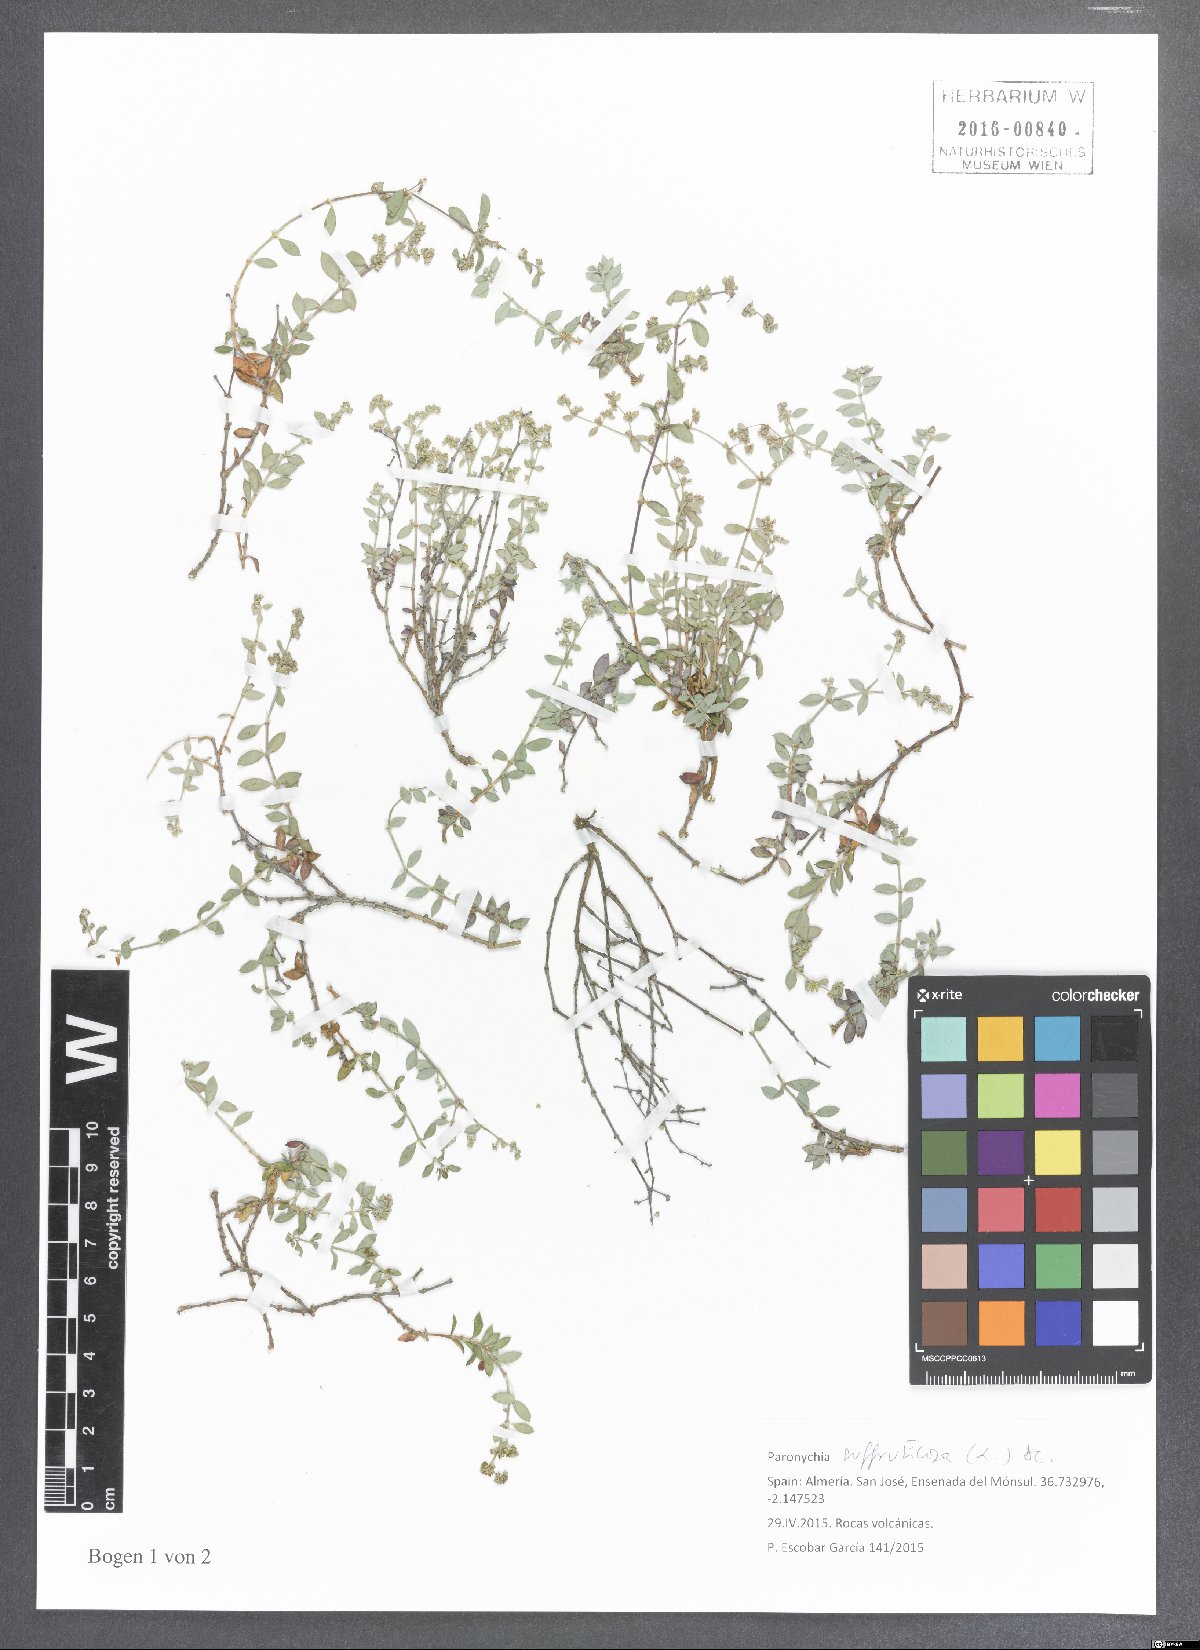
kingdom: Plantae
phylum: Tracheophyta
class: Magnoliopsida
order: Caryophyllales
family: Caryophyllaceae
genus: Paronychia
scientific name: Paronychia suffruticosa
